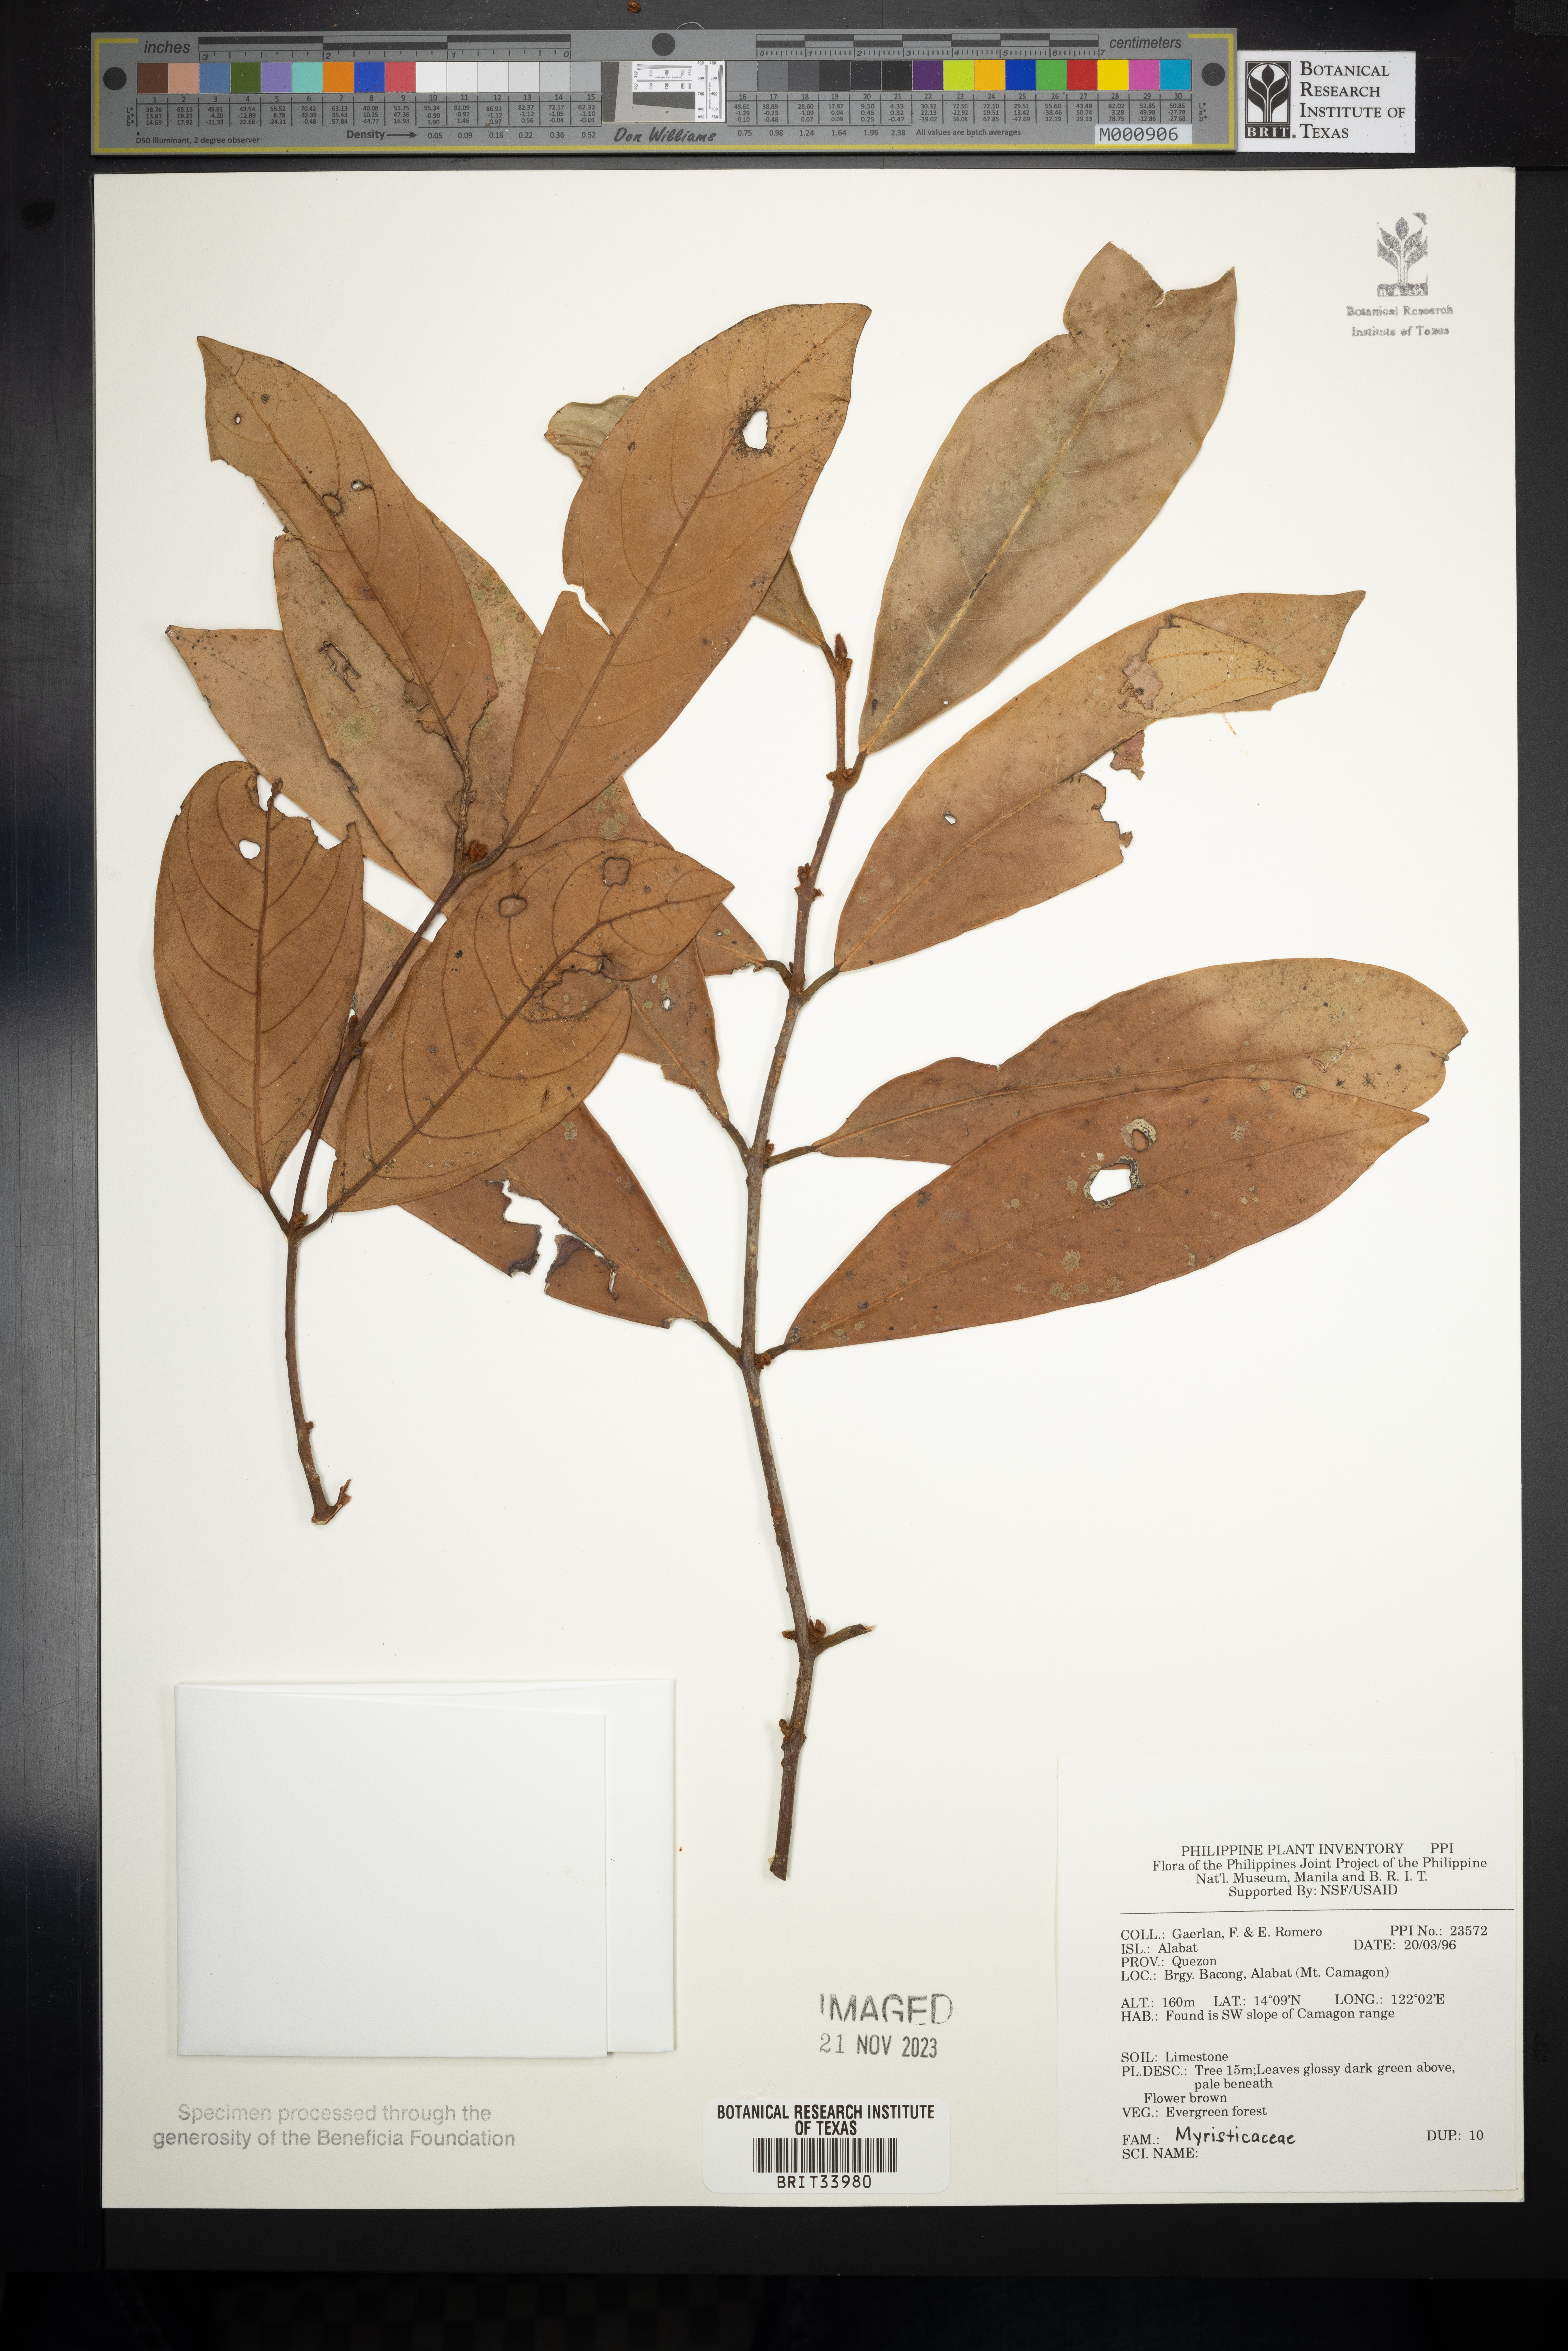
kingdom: Plantae
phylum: Tracheophyta
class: Magnoliopsida
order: Magnoliales
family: Myristicaceae
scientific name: Myristicaceae
